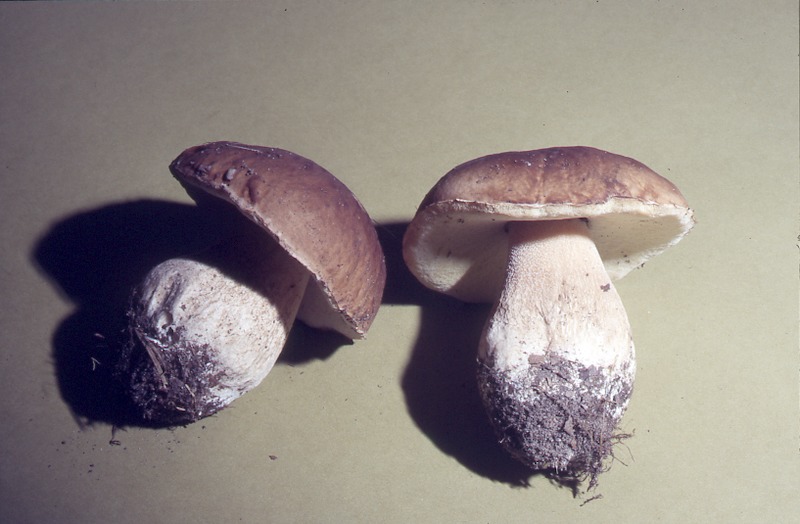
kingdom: Fungi
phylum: Basidiomycota
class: Agaricomycetes
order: Boletales
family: Boletaceae
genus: Boletus
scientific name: Boletus reticulatus
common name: Summer bolete
